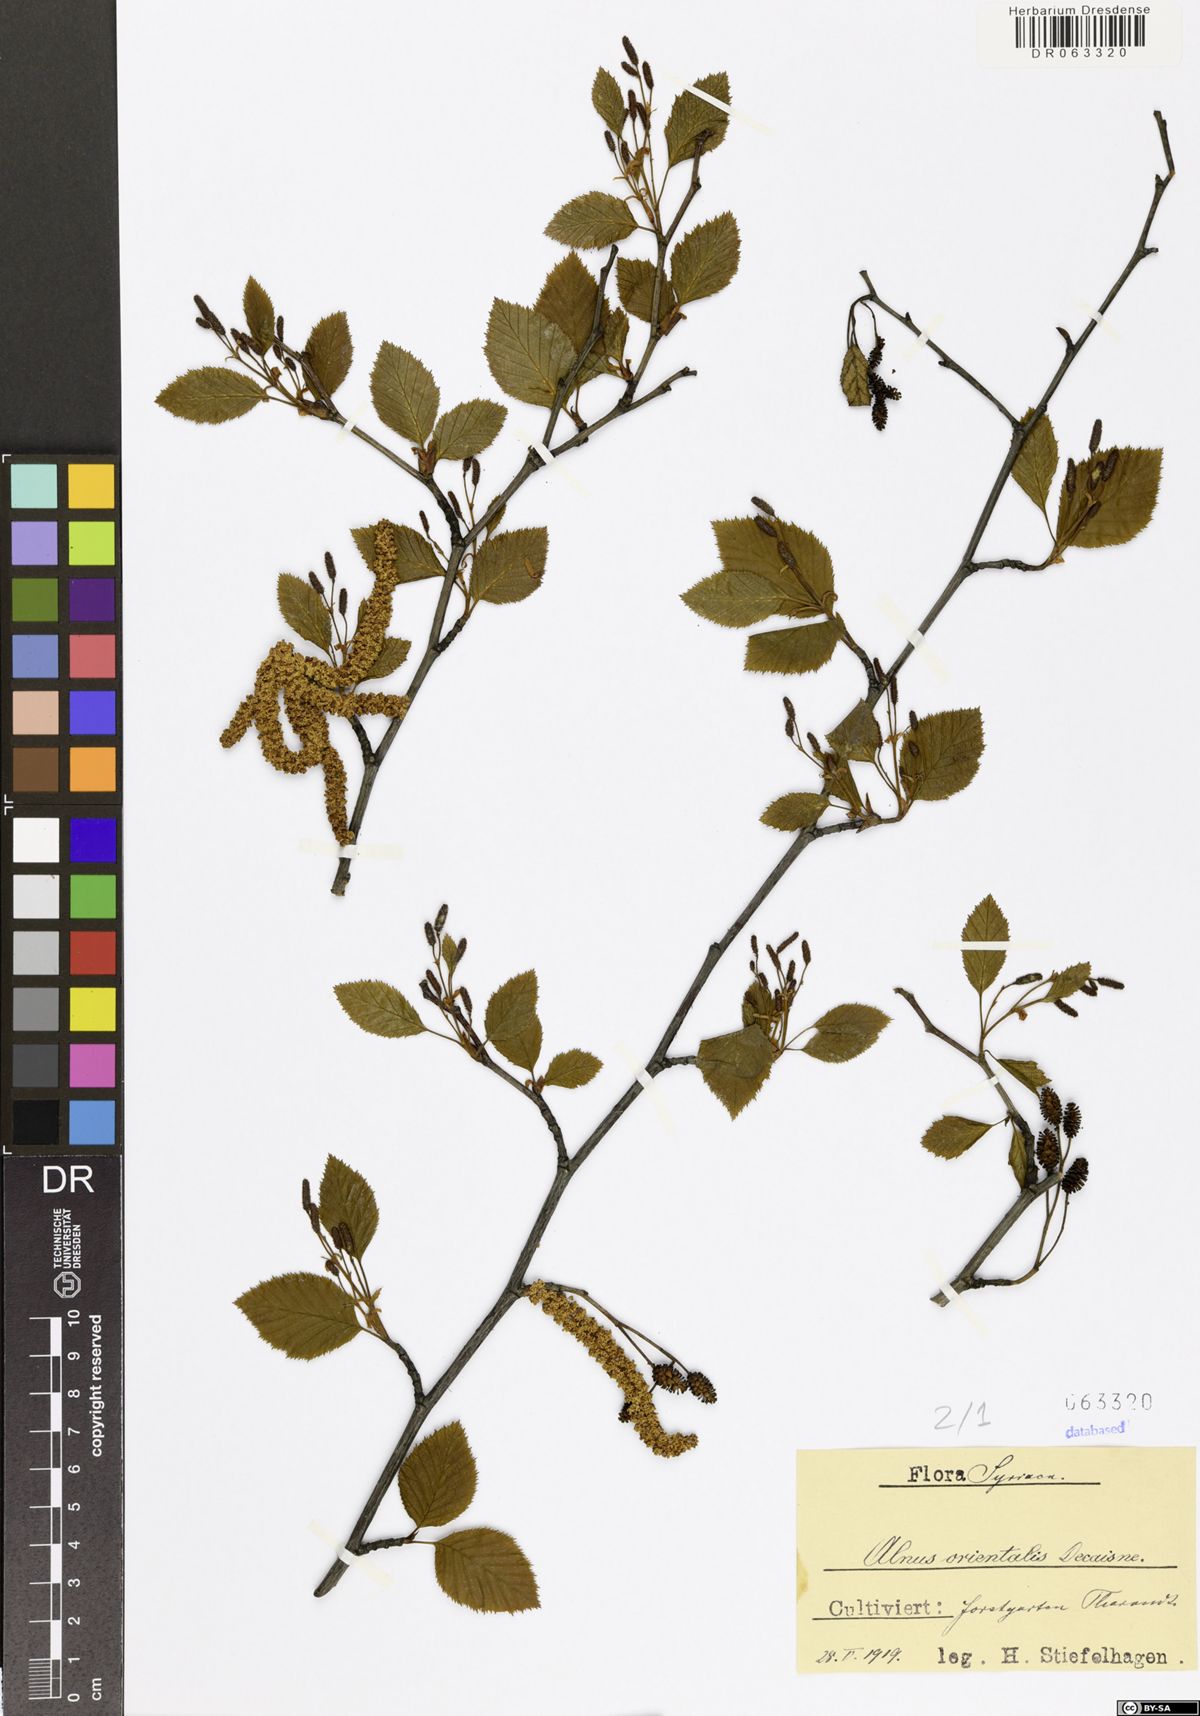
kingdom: Plantae
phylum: Tracheophyta
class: Magnoliopsida
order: Fagales
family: Betulaceae
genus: Alnus
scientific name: Alnus orientalis
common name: Oriental alder
